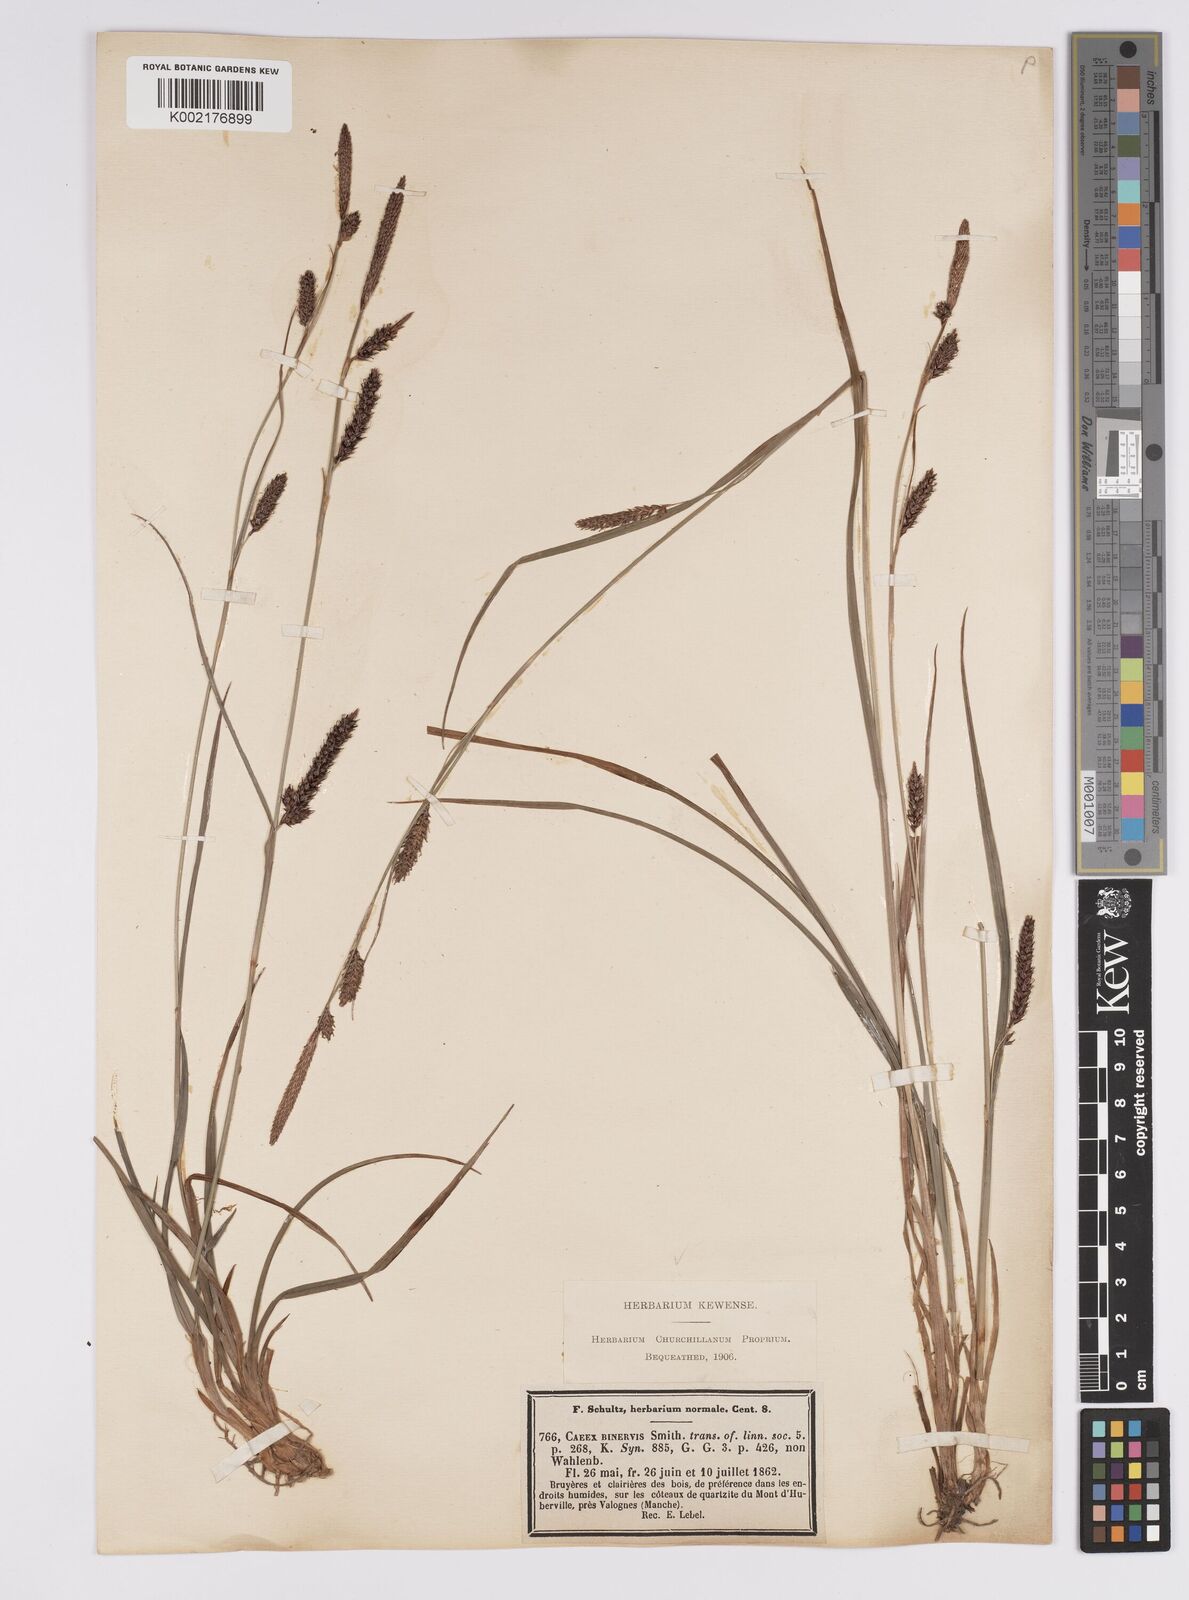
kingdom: Plantae
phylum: Tracheophyta
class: Liliopsida
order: Poales
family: Cyperaceae
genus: Carex
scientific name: Carex binervis
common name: Green-ribbed sedge
